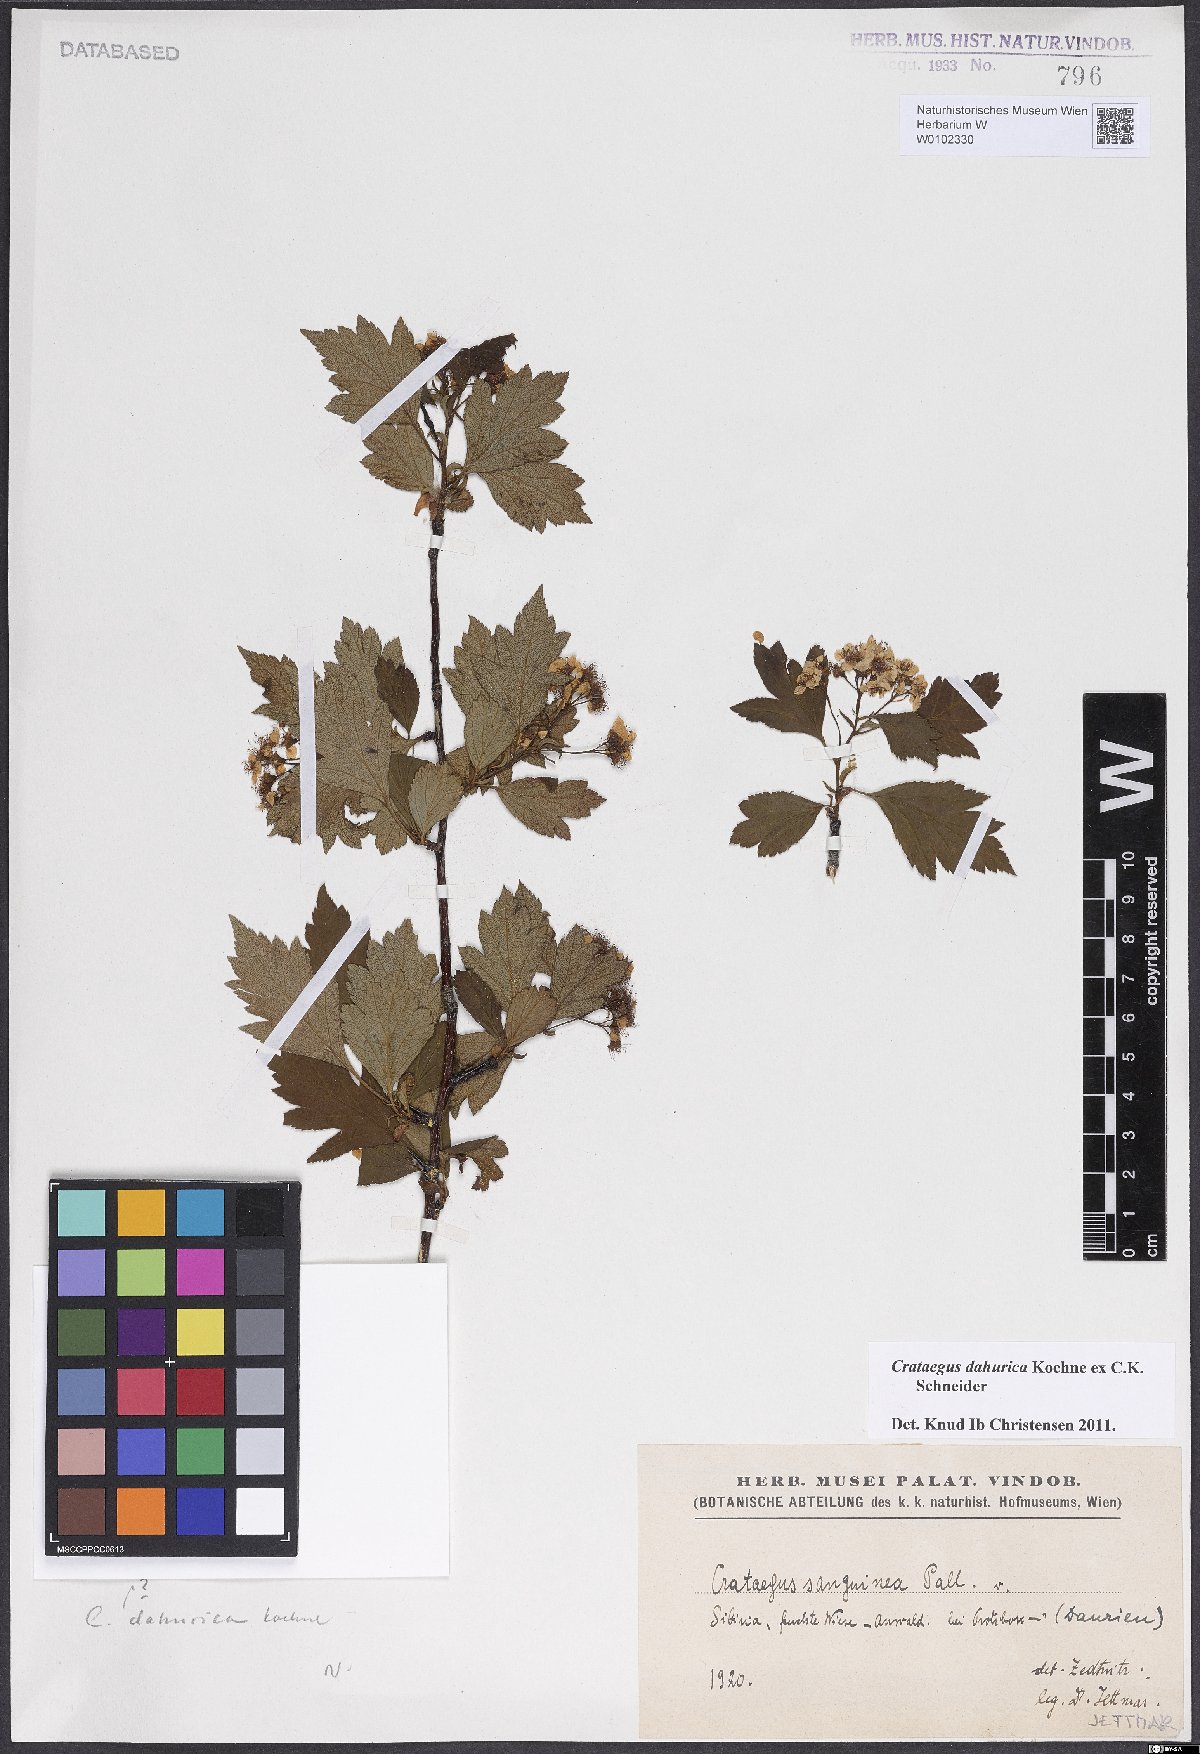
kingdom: Plantae
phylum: Tracheophyta
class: Magnoliopsida
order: Rosales
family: Rosaceae
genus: Crataegus
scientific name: Crataegus dahurica
